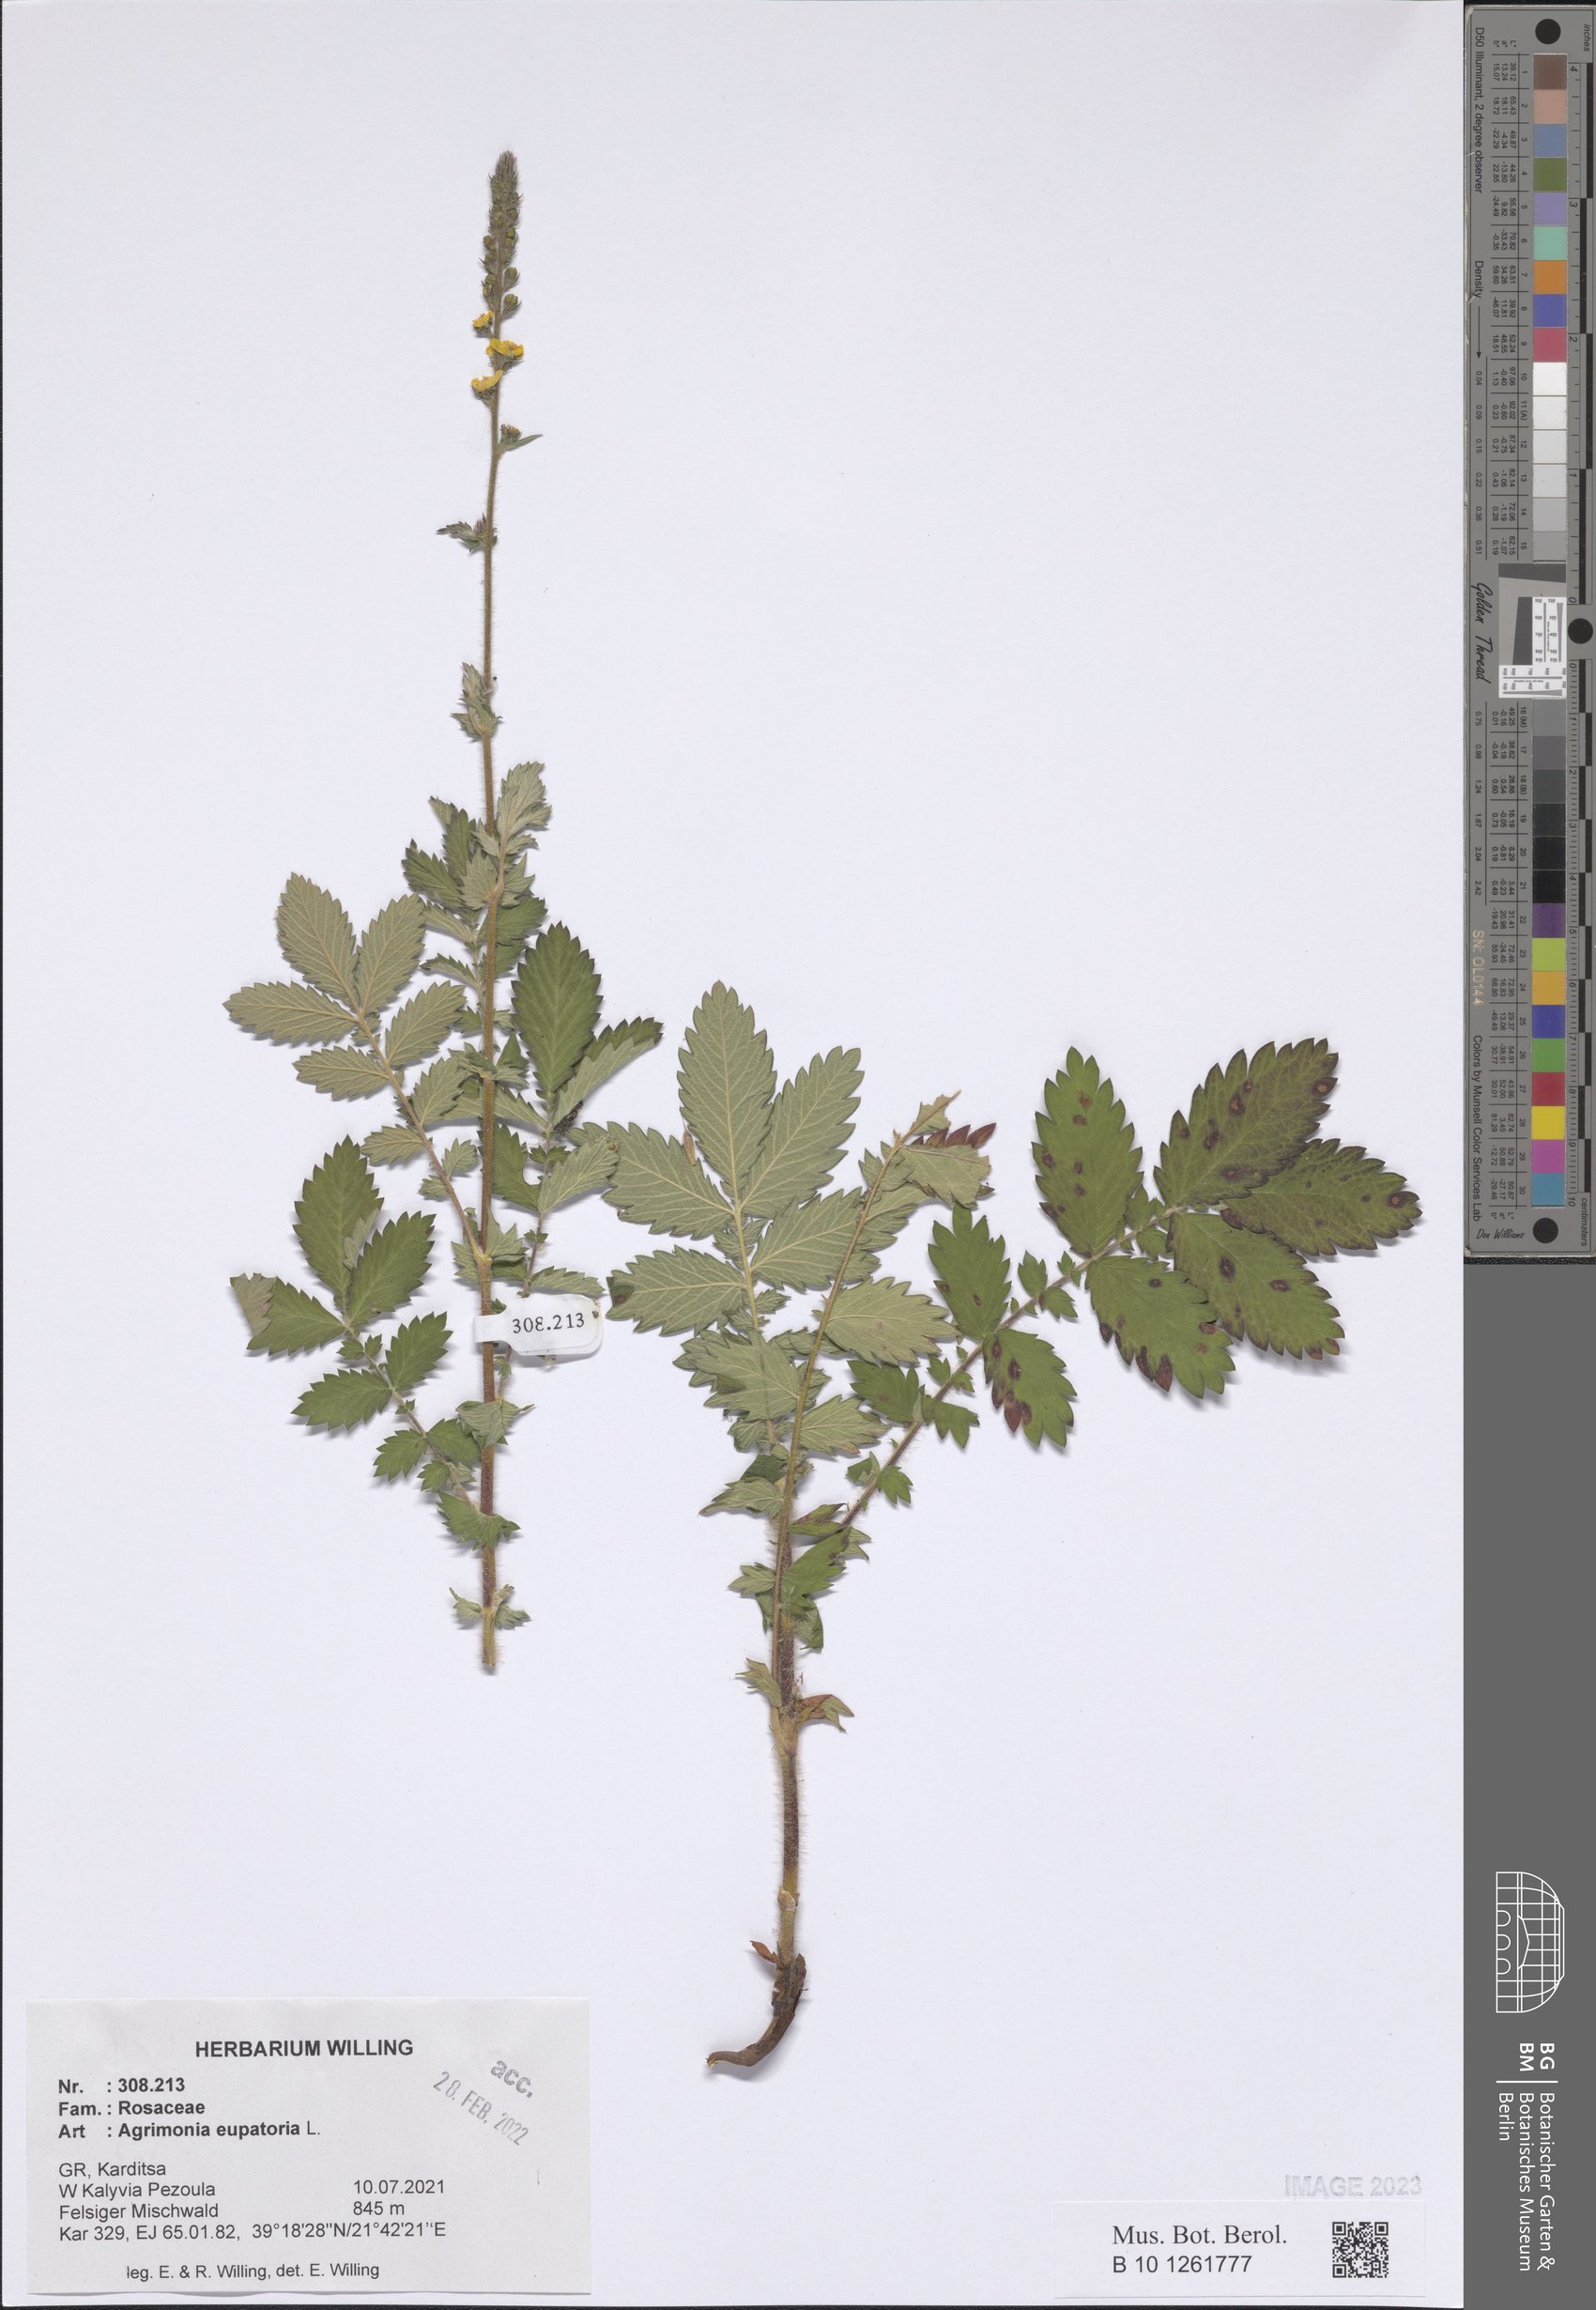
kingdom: Plantae
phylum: Tracheophyta
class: Magnoliopsida
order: Rosales
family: Rosaceae
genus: Agrimonia
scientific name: Agrimonia eupatoria
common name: Agrimony
